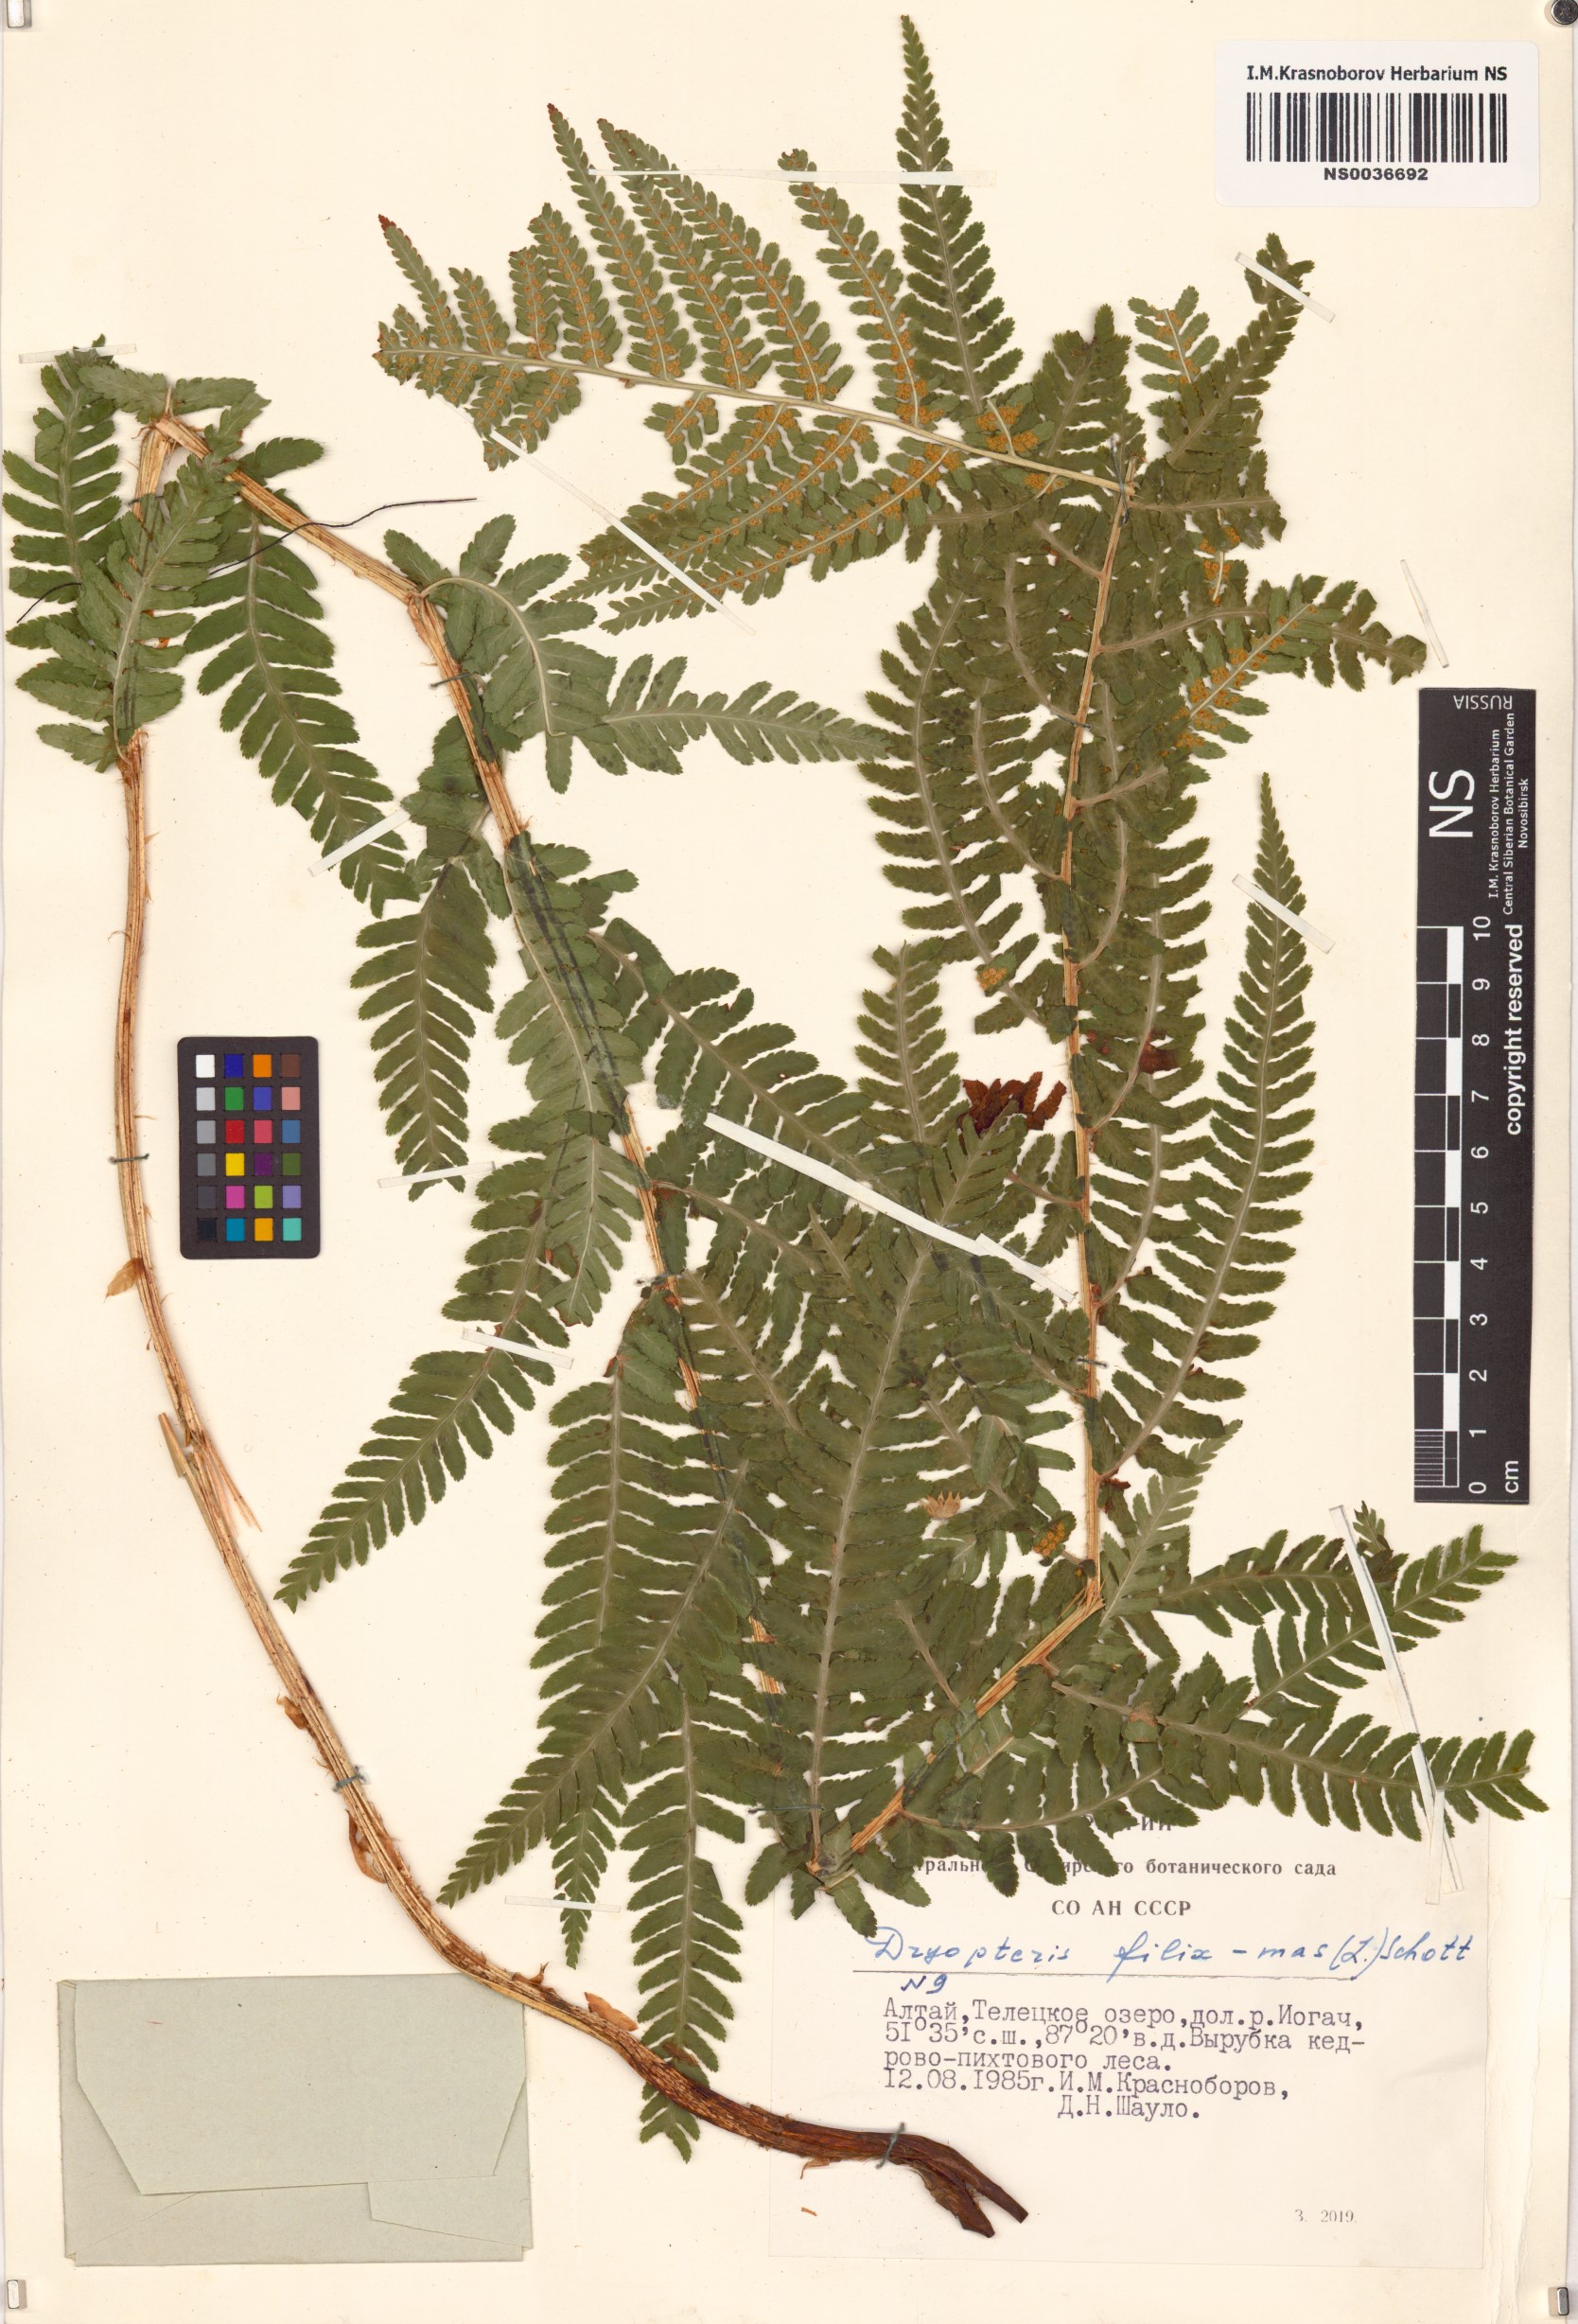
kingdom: Plantae
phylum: Tracheophyta
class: Polypodiopsida
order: Polypodiales
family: Dryopteridaceae
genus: Dryopteris
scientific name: Dryopteris filix-mas
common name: Male fern
